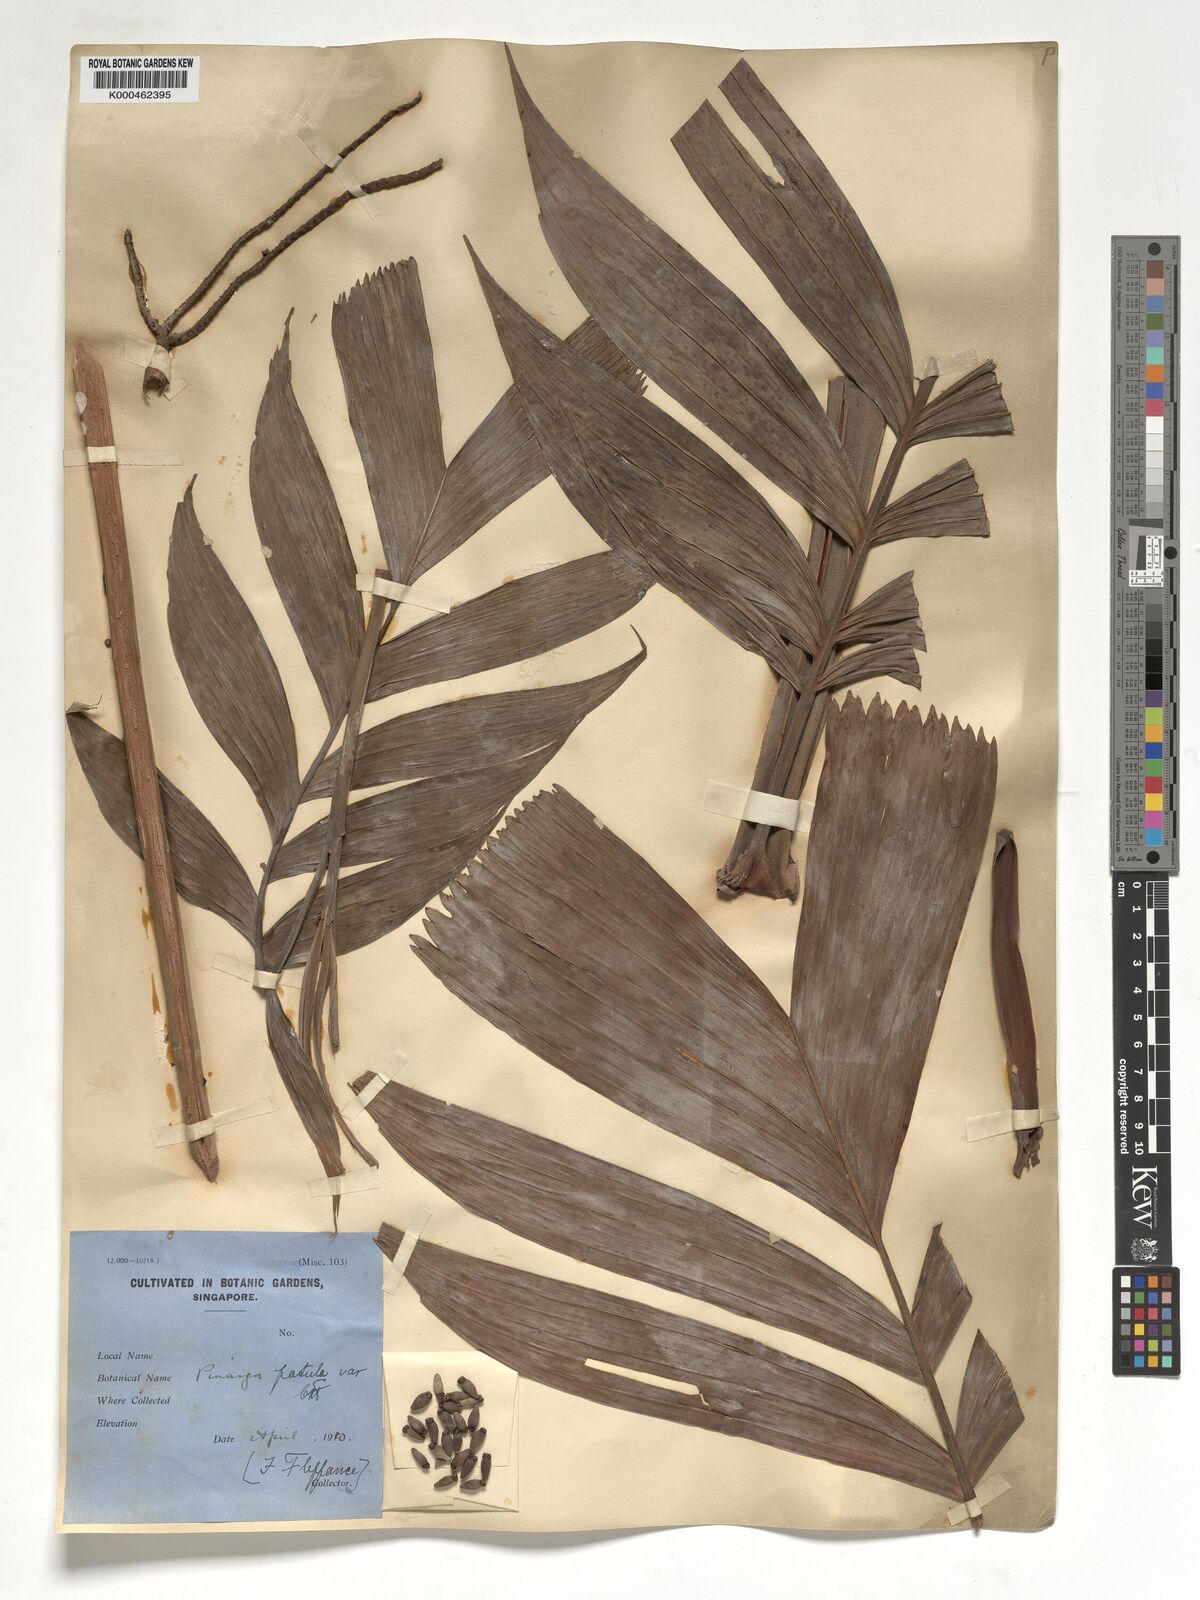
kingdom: Plantae
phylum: Tracheophyta
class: Liliopsida
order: Arecales
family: Arecaceae
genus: Pinanga
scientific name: Pinanga patula
